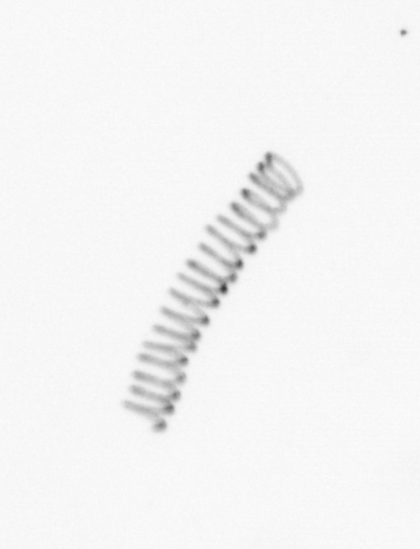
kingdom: Chromista
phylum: Ochrophyta
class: Bacillariophyceae
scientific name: Bacillariophyceae
